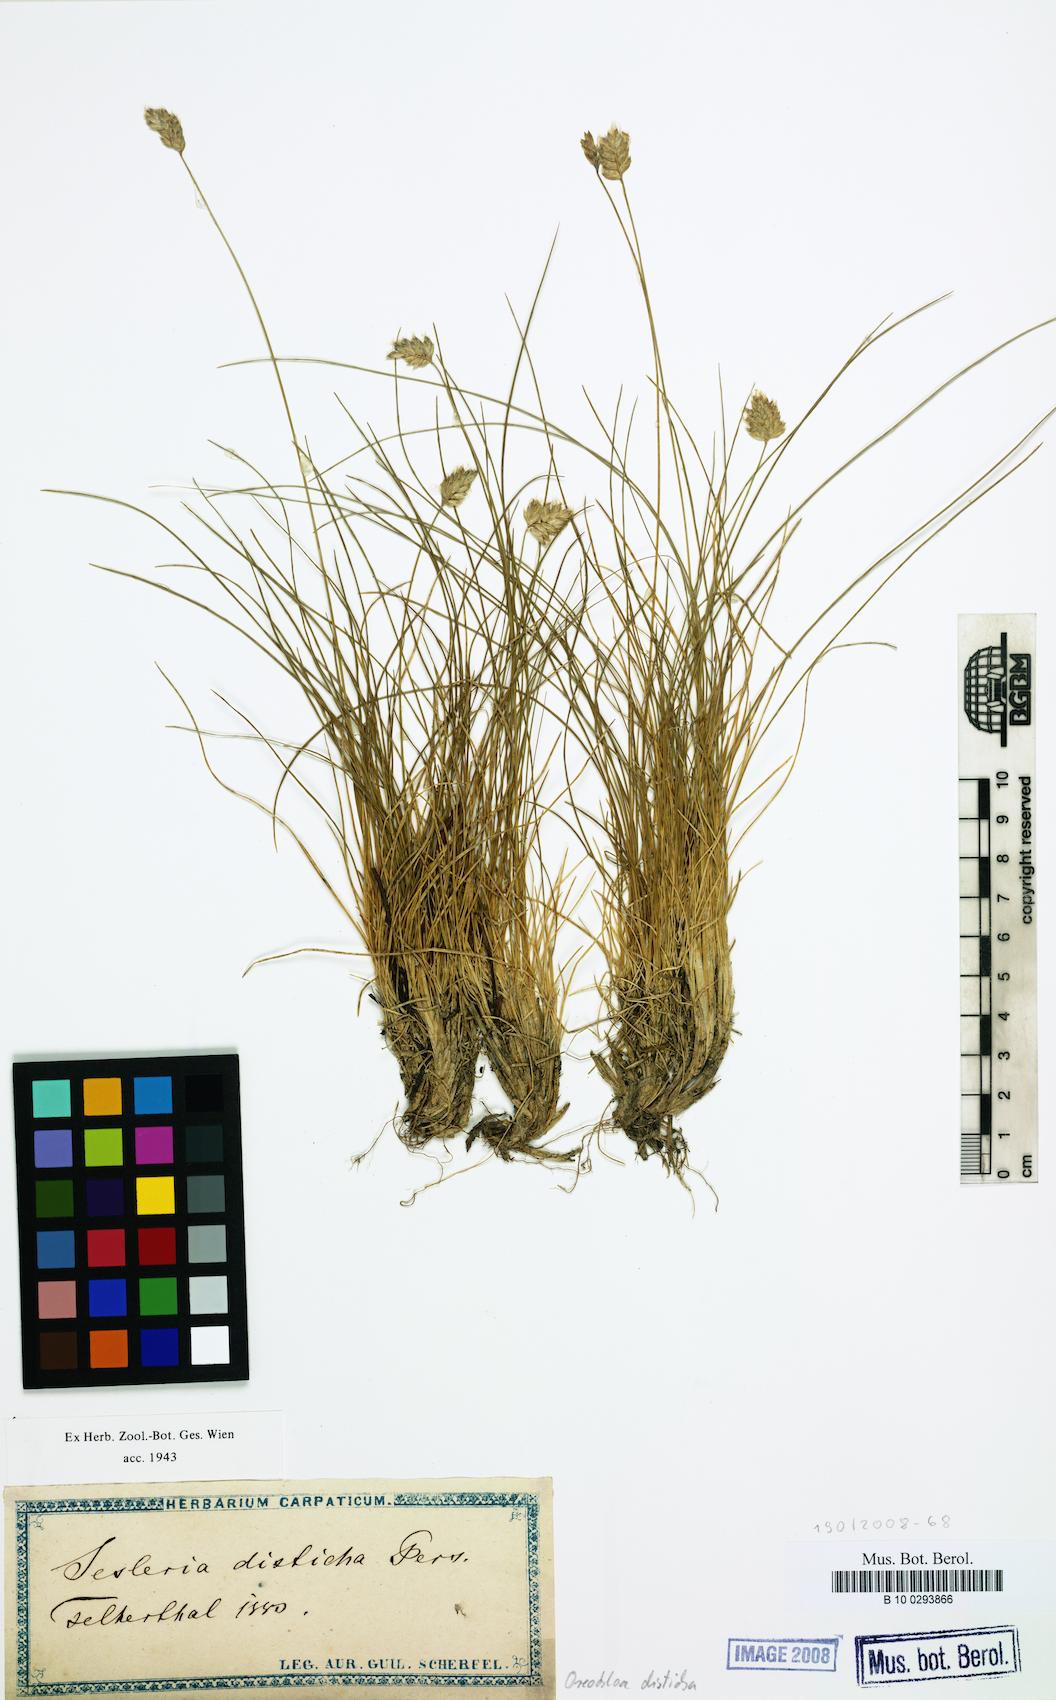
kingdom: Plantae
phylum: Tracheophyta
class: Liliopsida
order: Poales
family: Poaceae
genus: Oreochloa
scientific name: Oreochloa disticha
